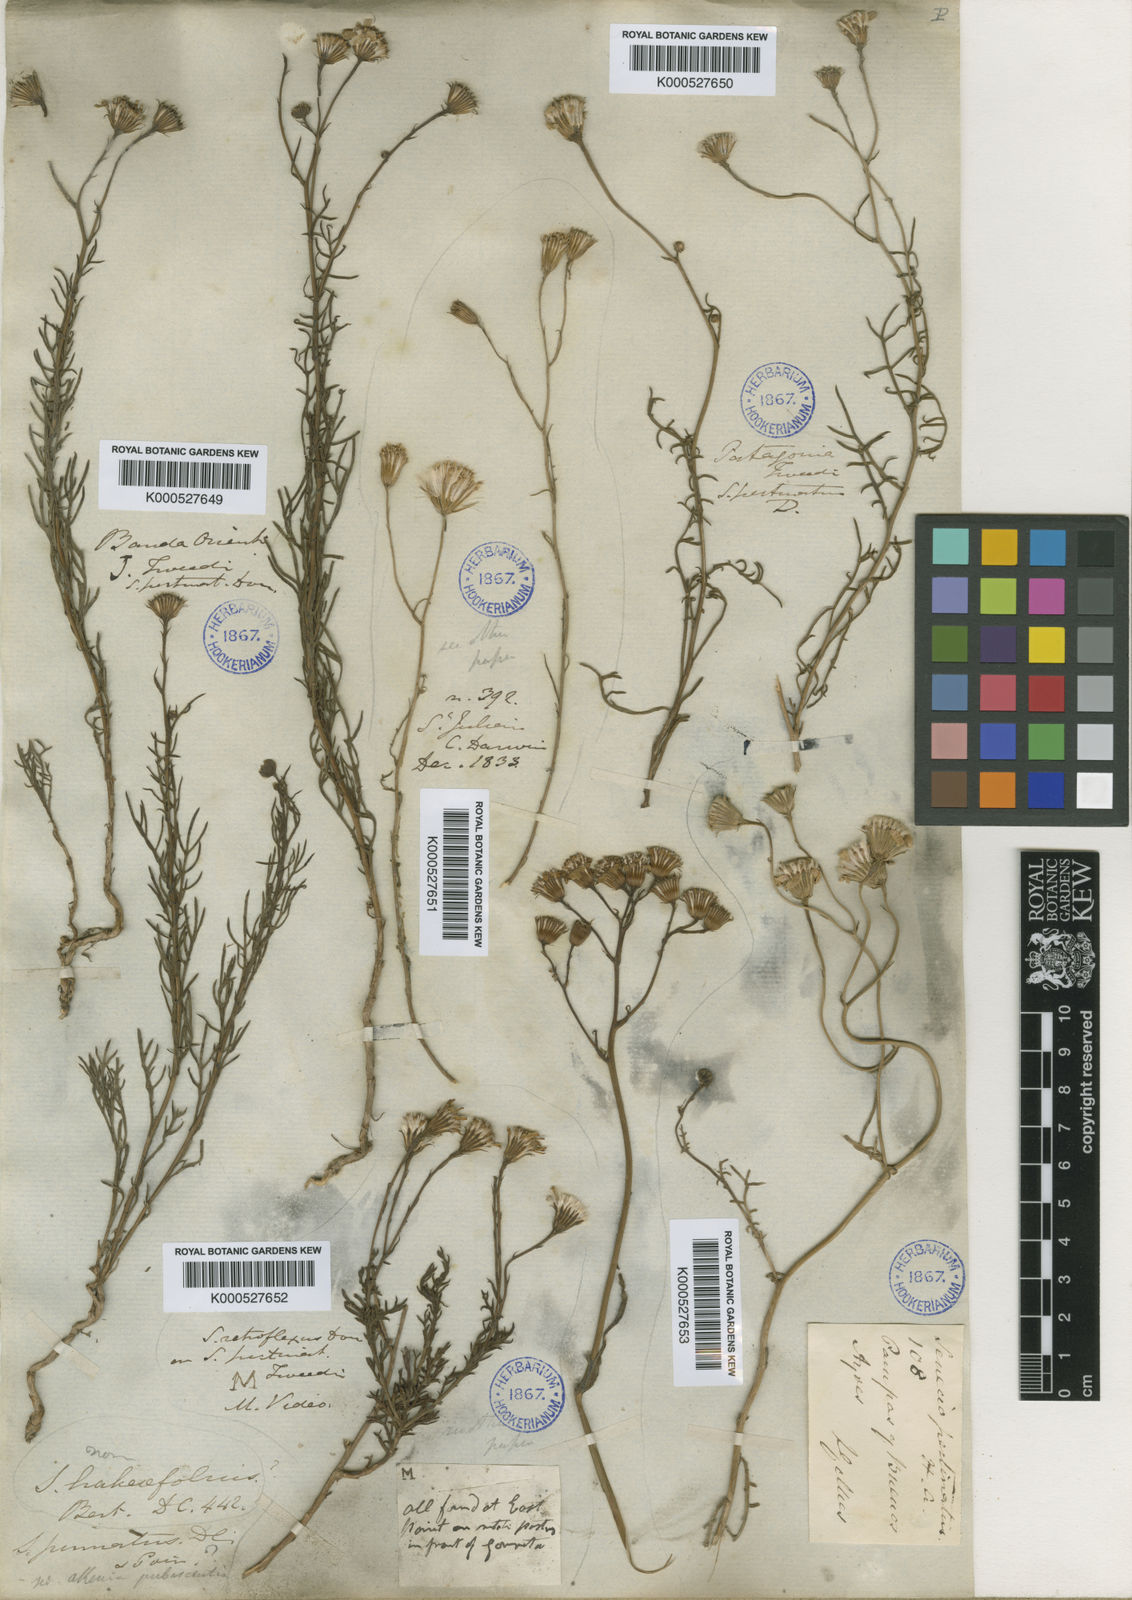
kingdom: Plantae
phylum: Tracheophyta
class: Magnoliopsida
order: Asterales
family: Asteraceae
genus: Senecio
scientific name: Senecio pinnatus
